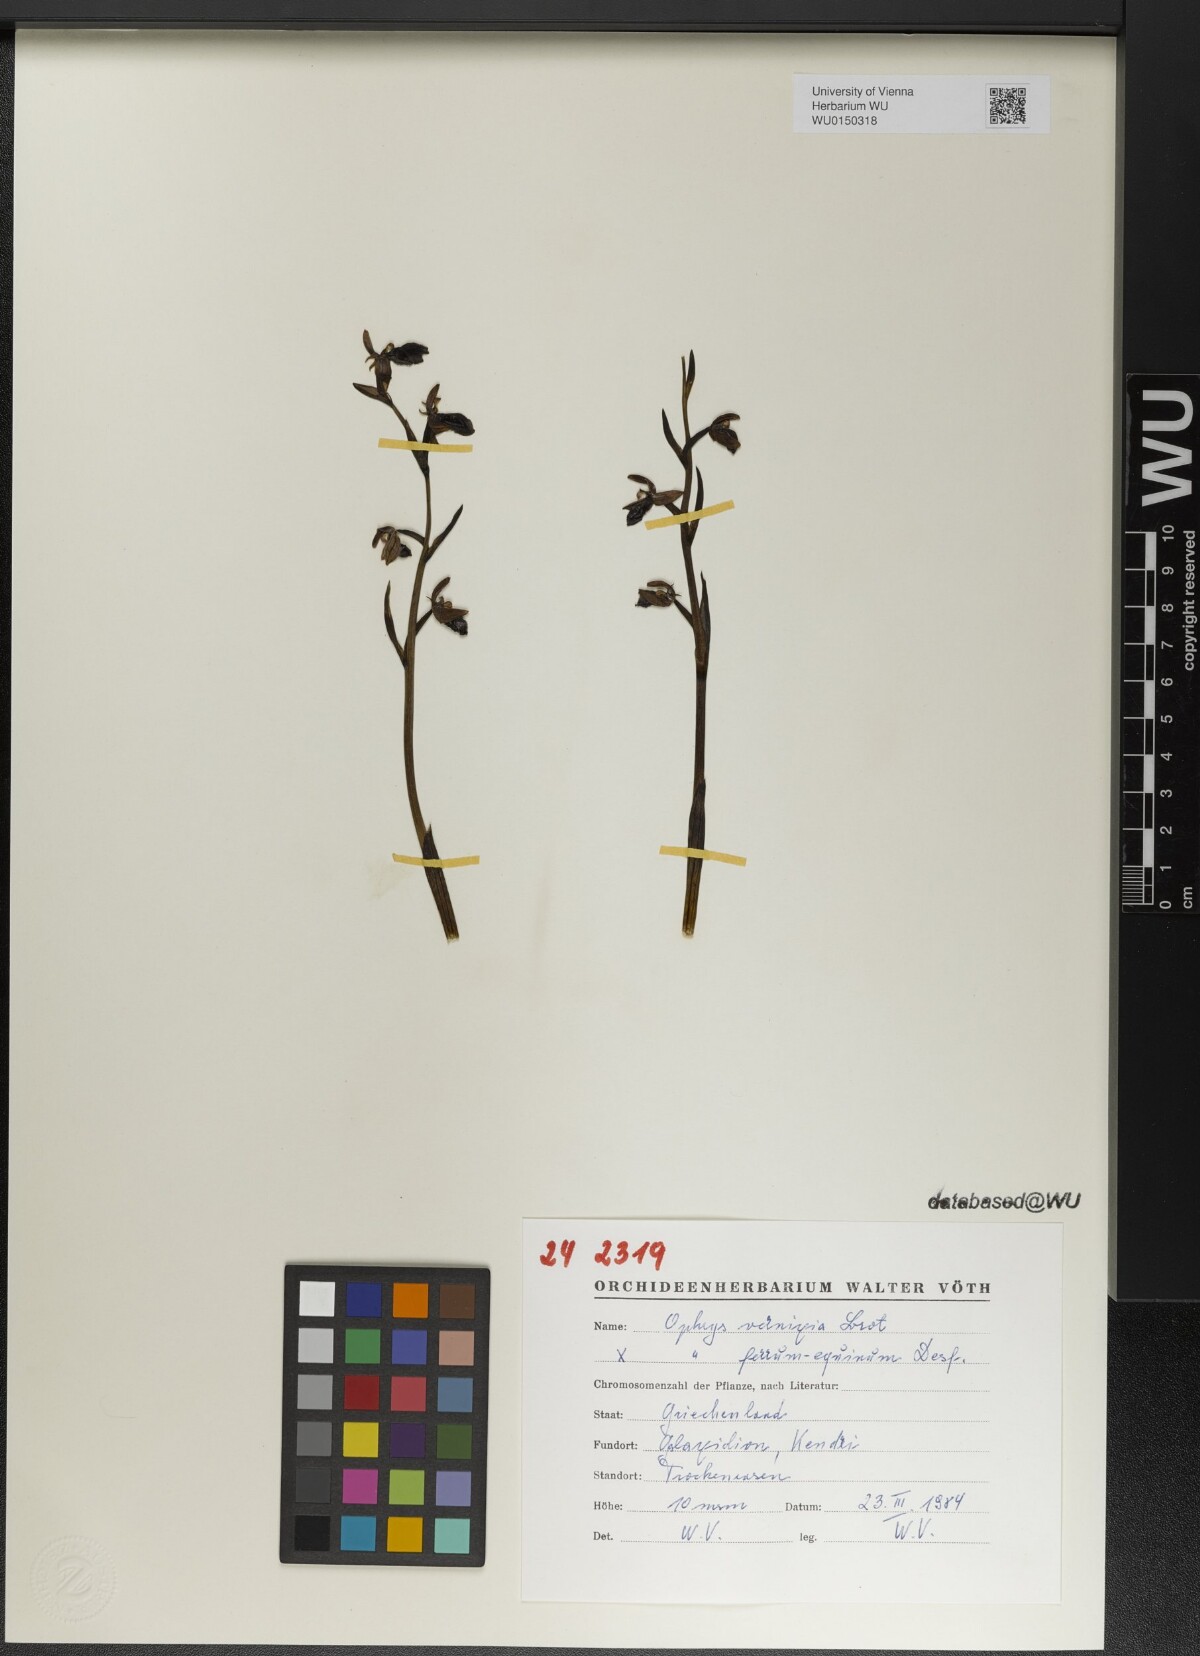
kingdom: Plantae
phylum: Tracheophyta
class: Liliopsida
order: Asparagales
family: Orchidaceae
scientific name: Orchidaceae
